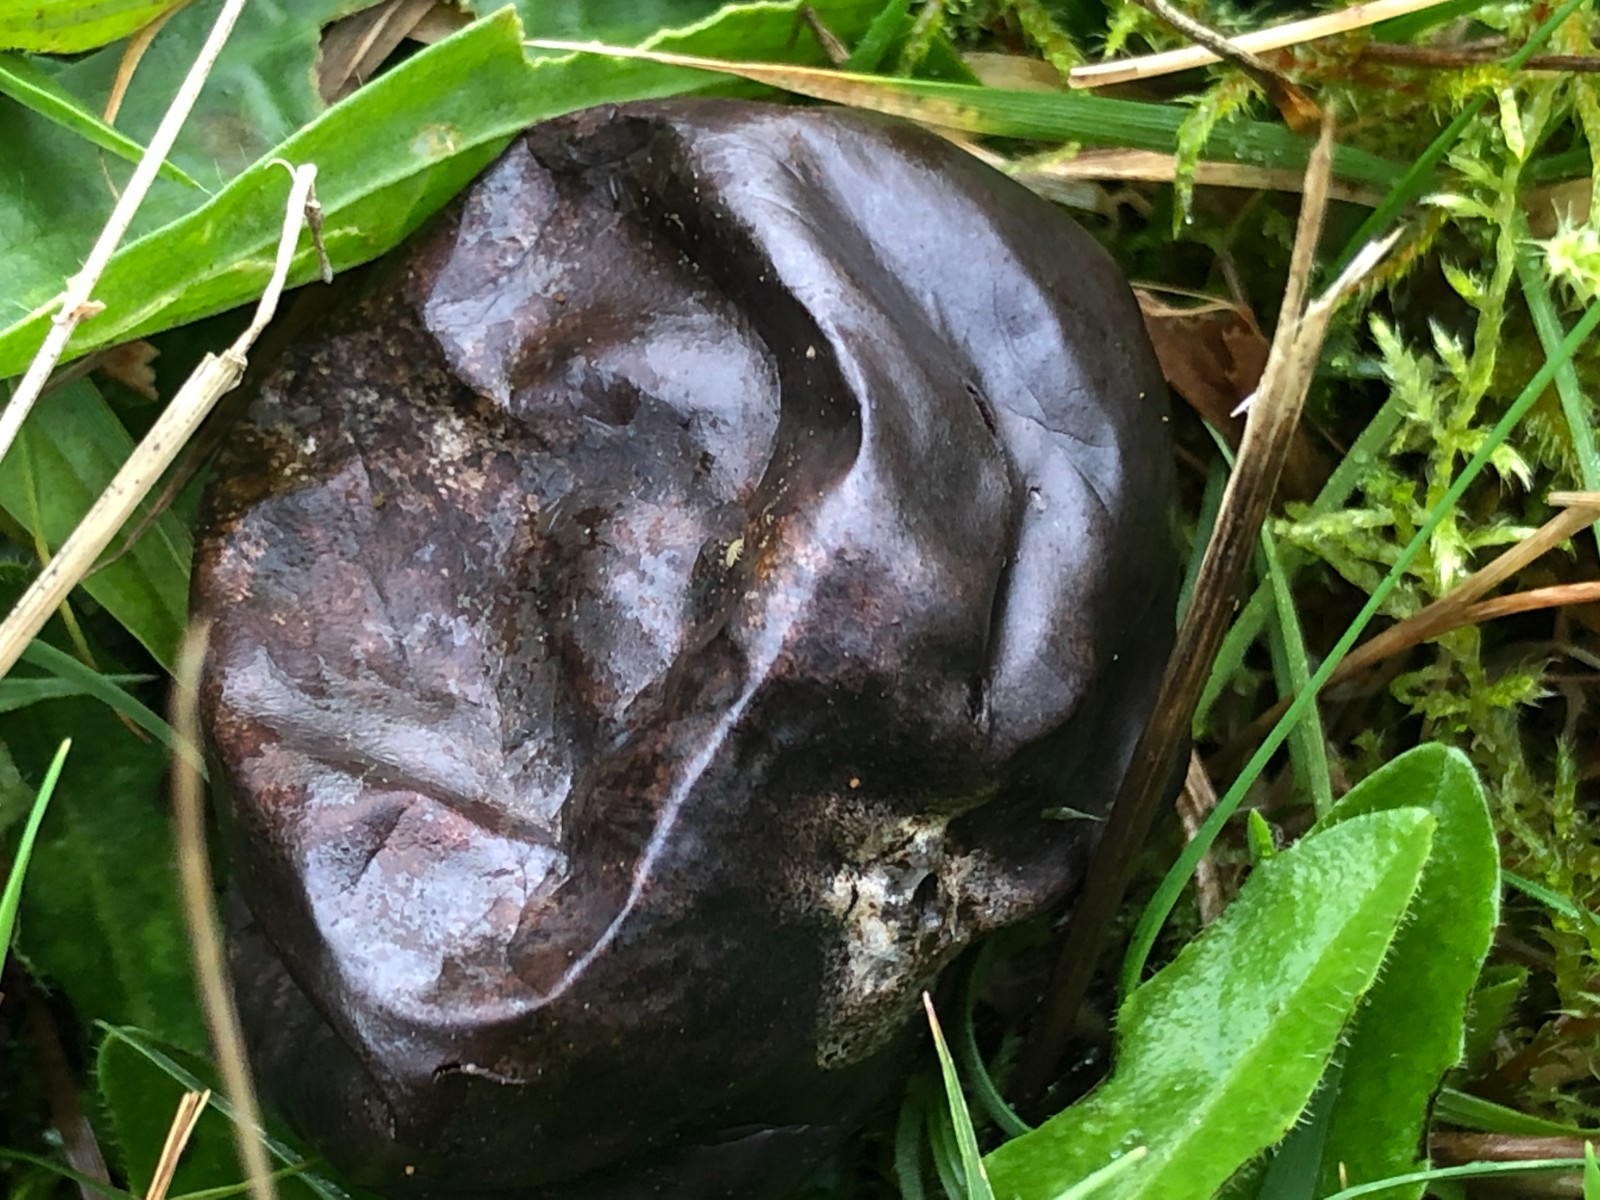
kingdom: Fungi
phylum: Basidiomycota
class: Agaricomycetes
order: Agaricales
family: Lycoperdaceae
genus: Bovista
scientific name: Bovista nigrescens
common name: sortagtig bovist
